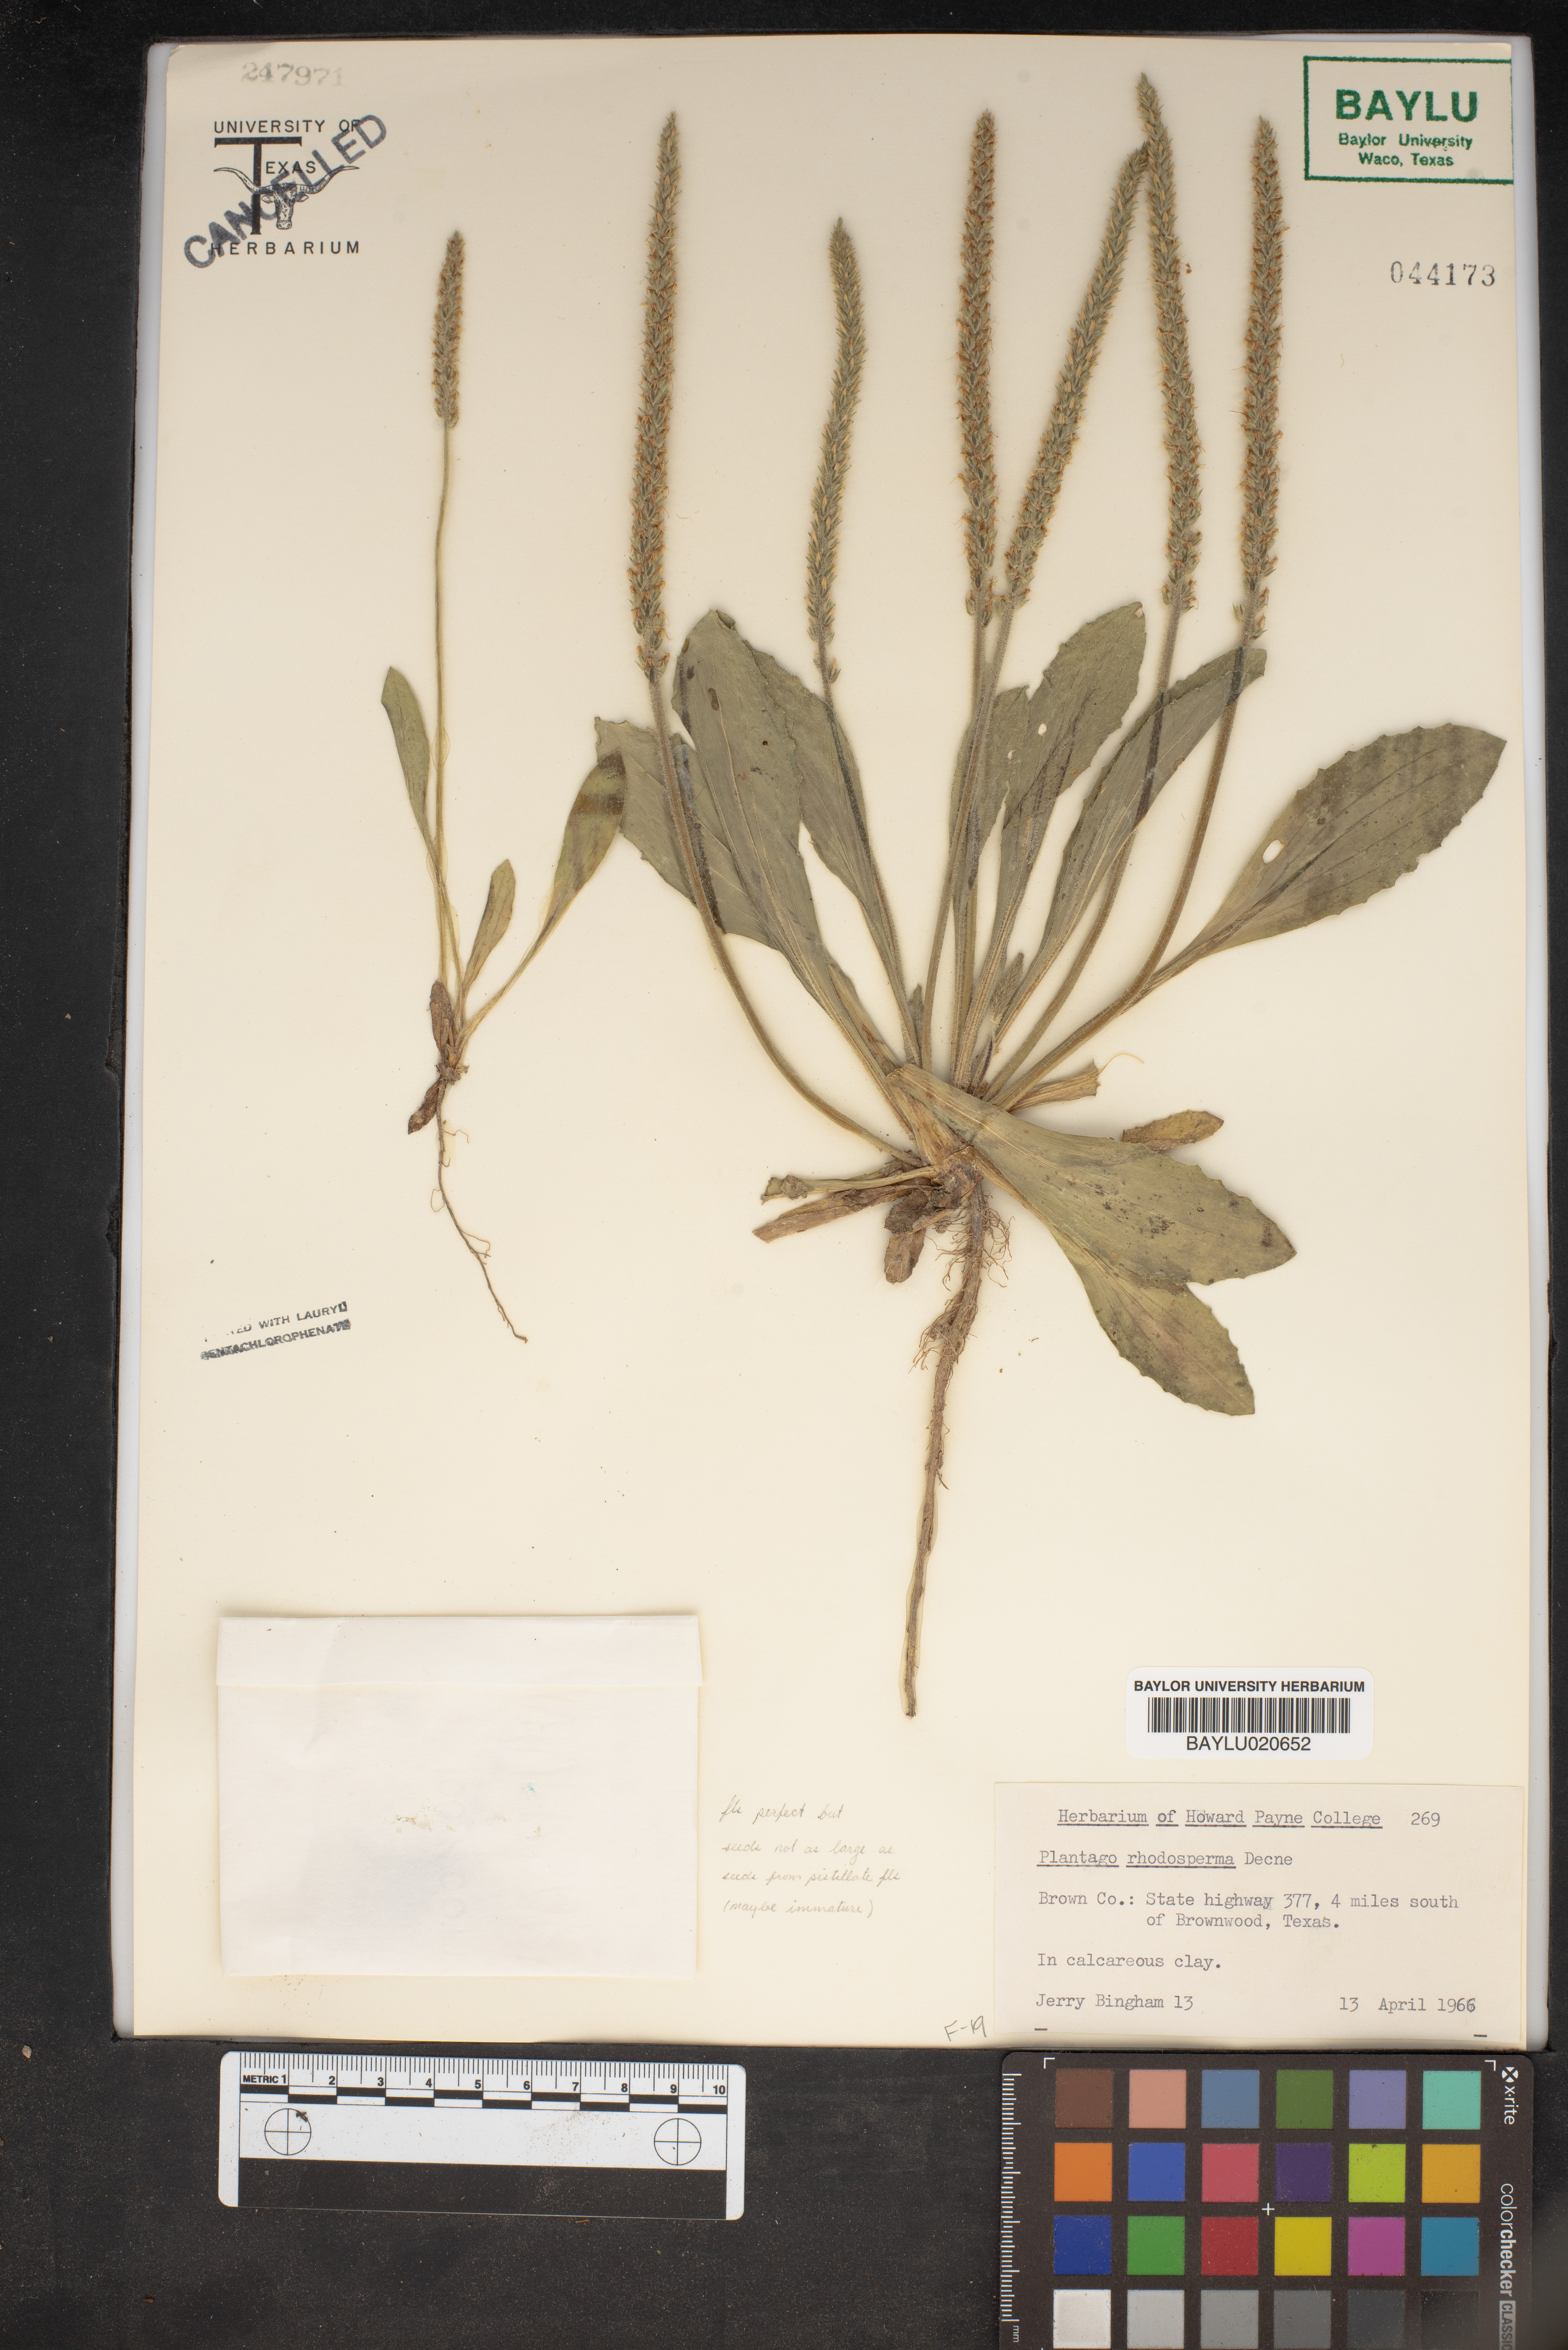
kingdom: Plantae
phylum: Tracheophyta
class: Magnoliopsida
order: Lamiales
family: Plantaginaceae
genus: Plantago
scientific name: Plantago rhodosperma
